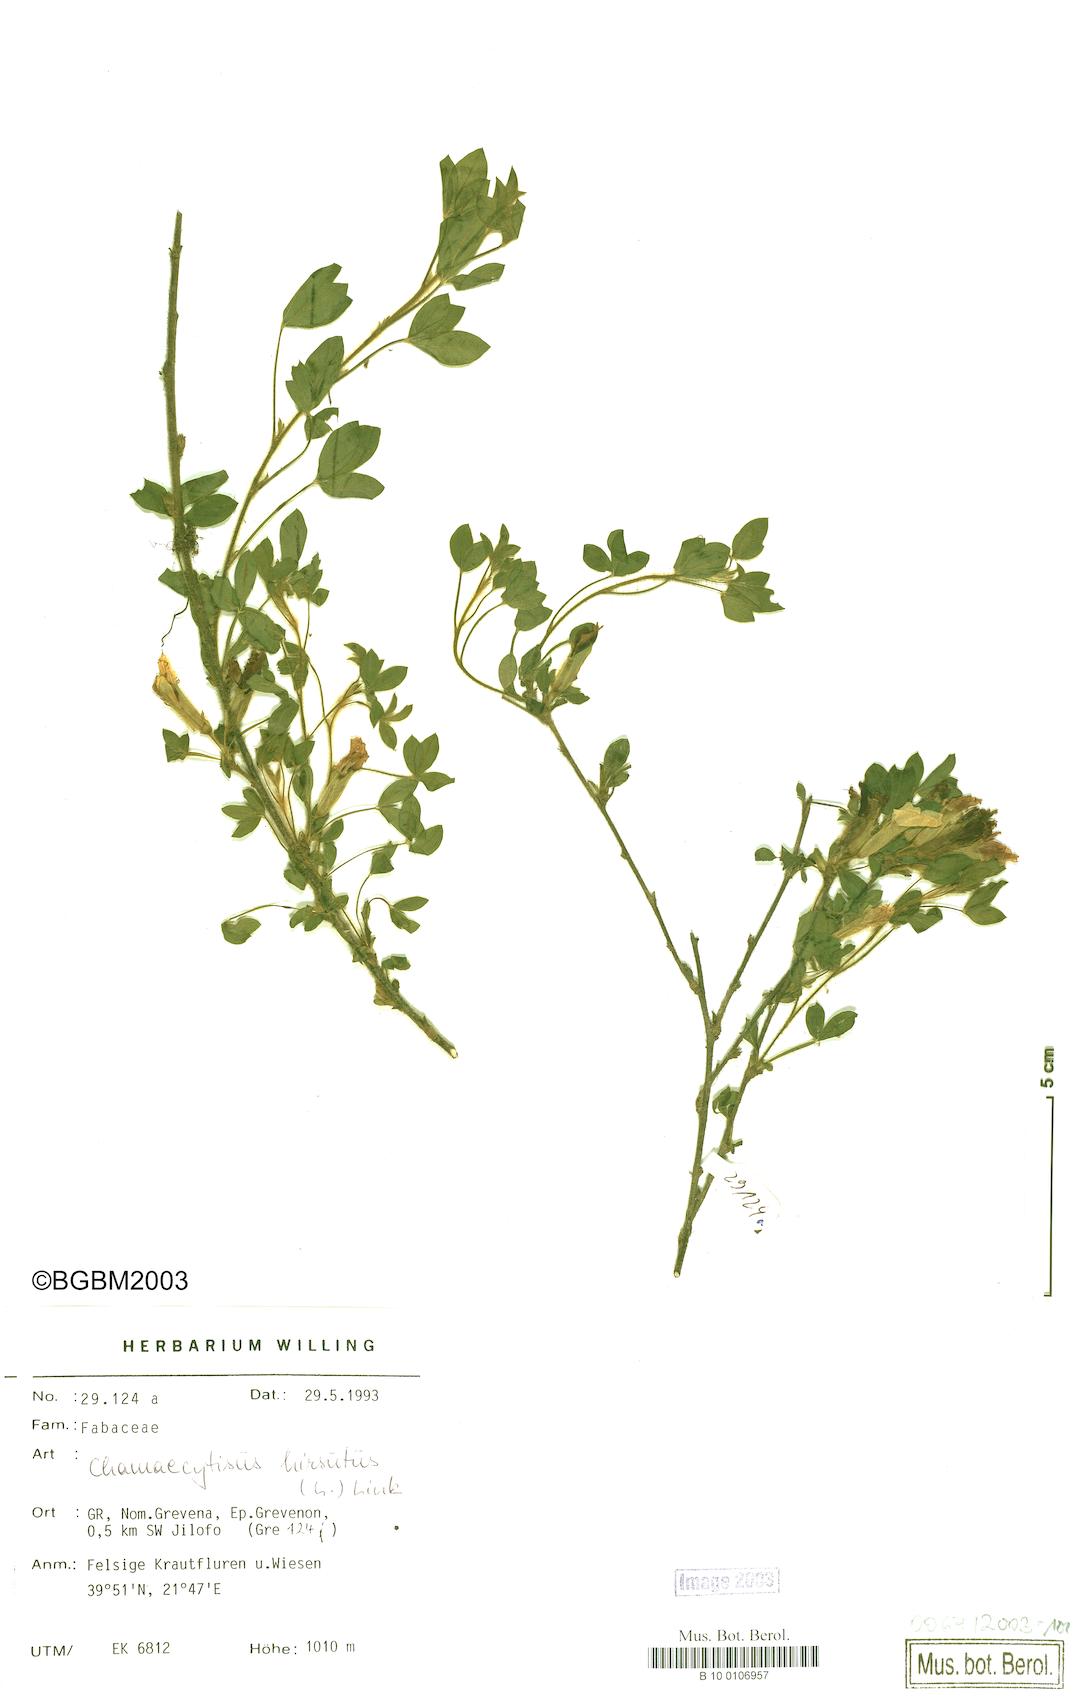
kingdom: Plantae
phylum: Tracheophyta
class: Magnoliopsida
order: Fabales
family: Fabaceae
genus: Chamaecytisus
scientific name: Chamaecytisus hirsutus
